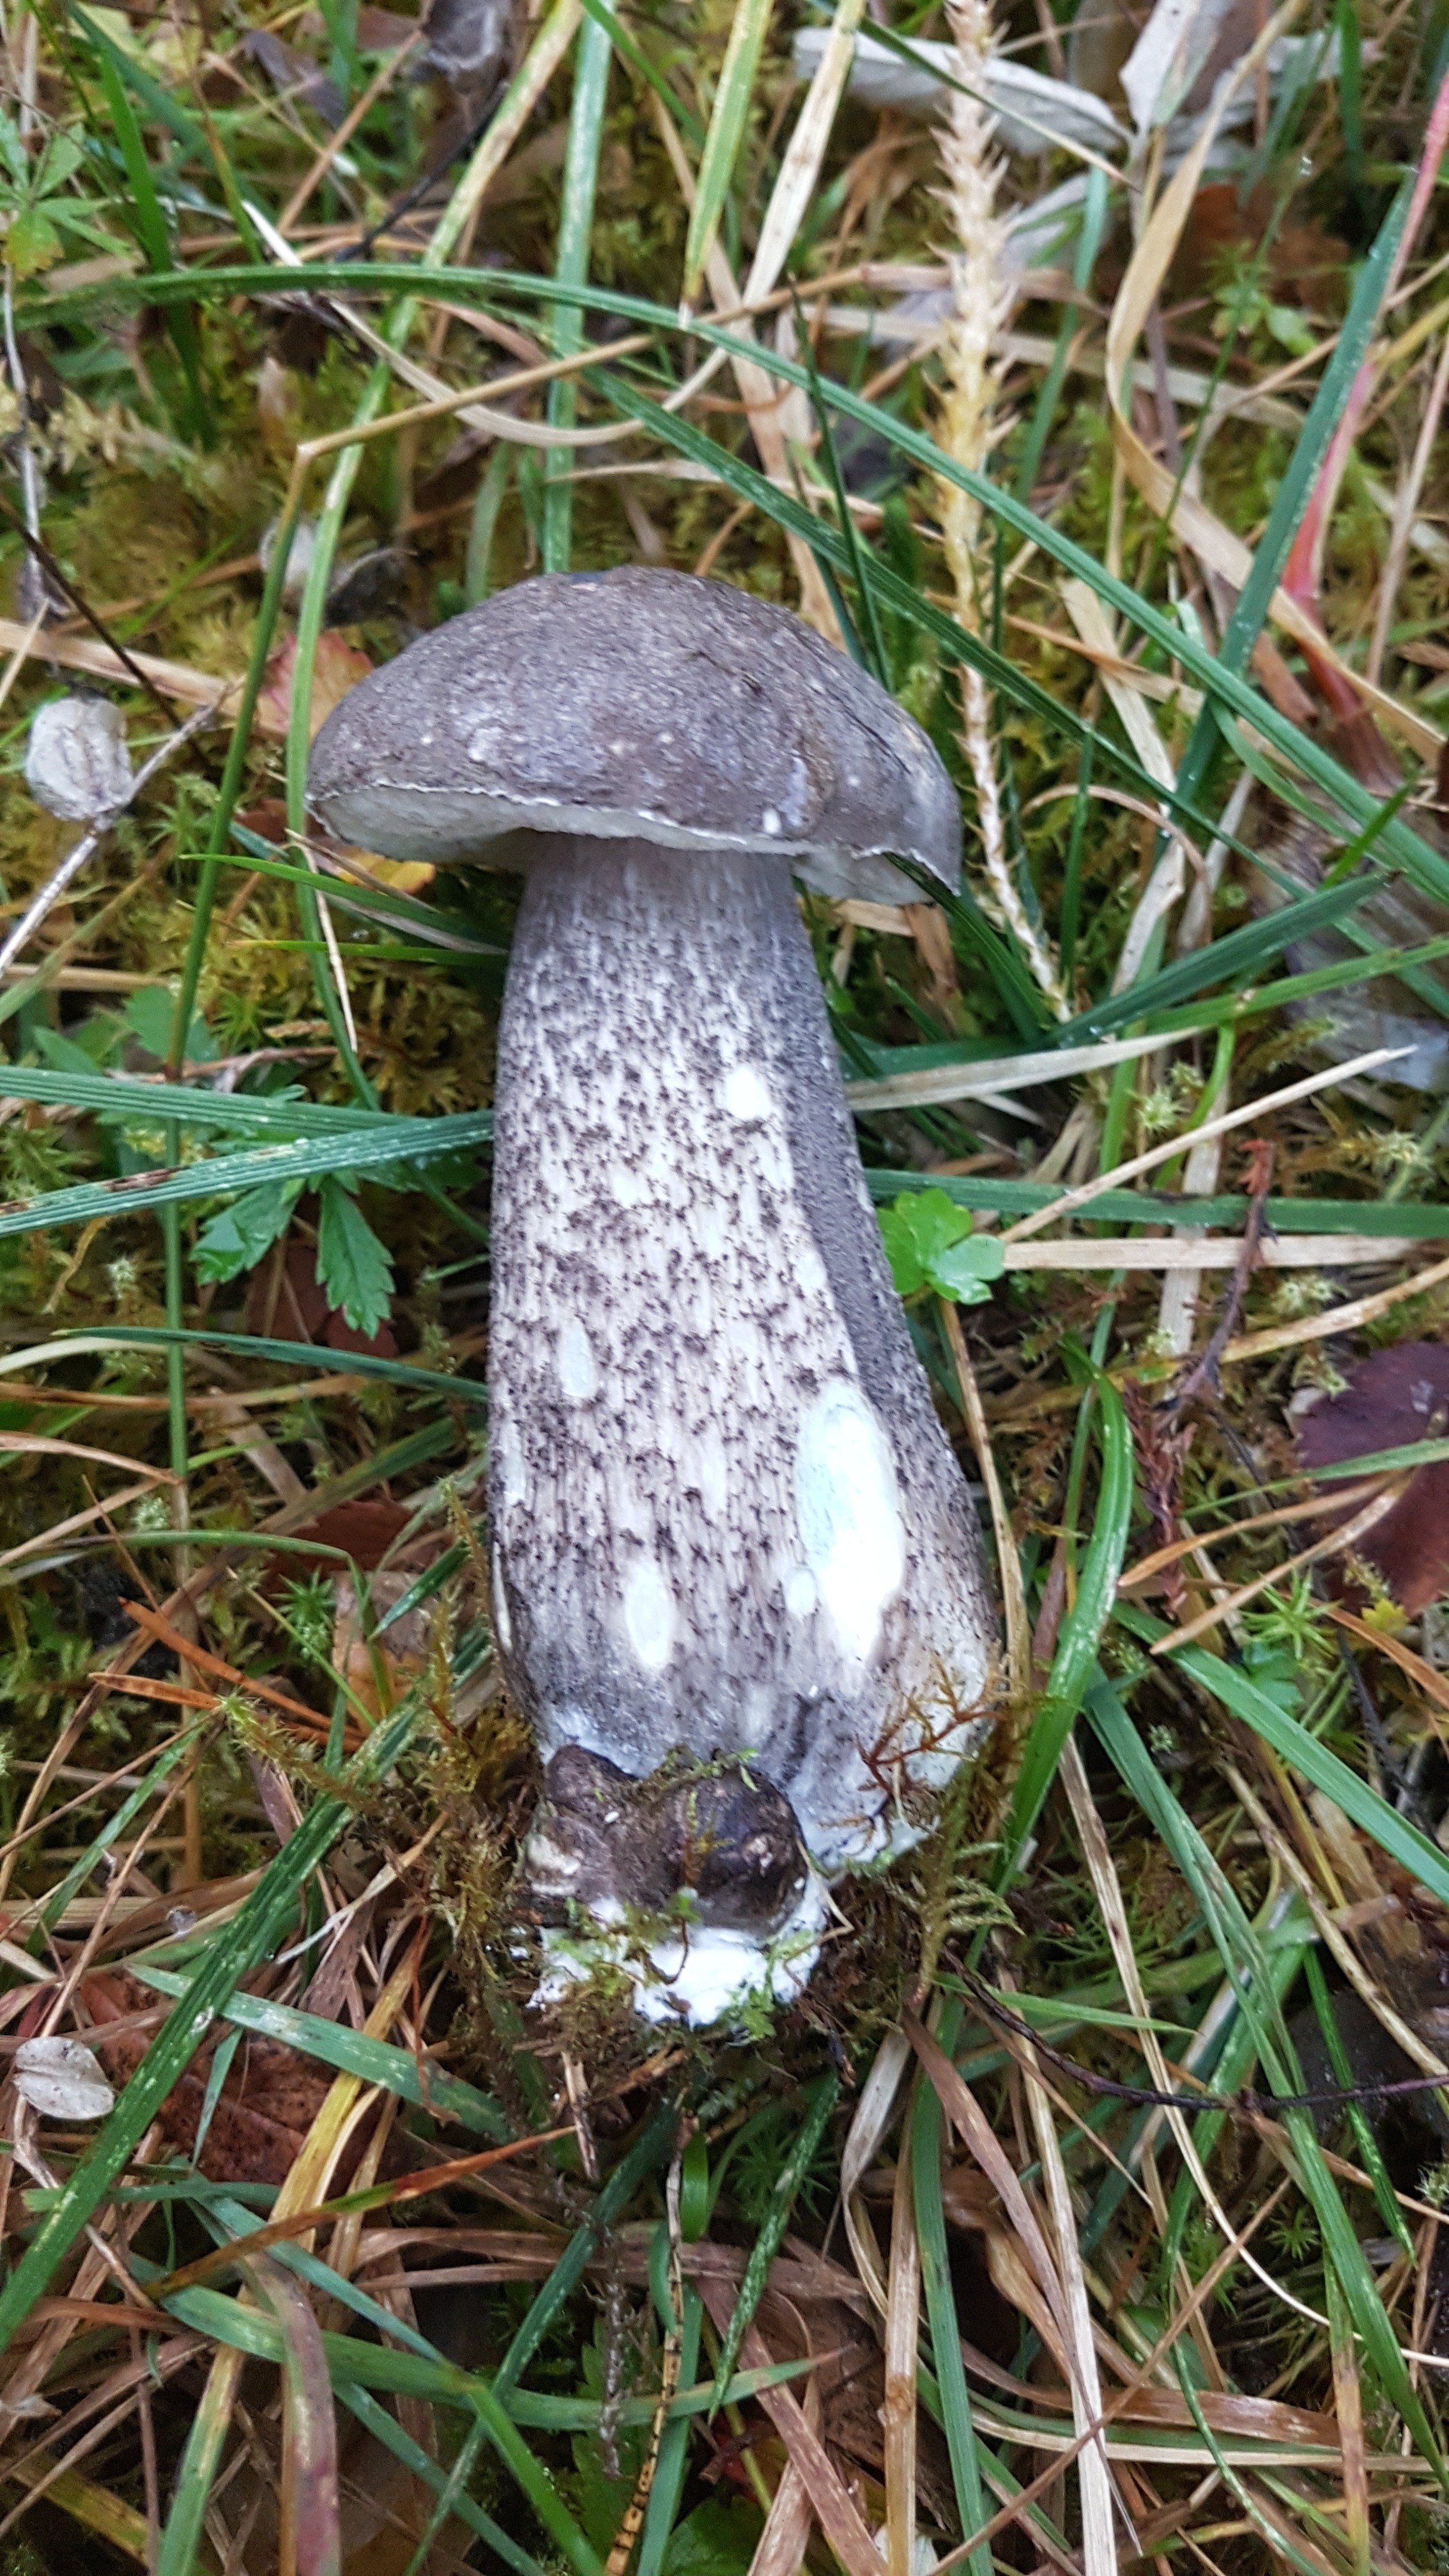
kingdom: Fungi
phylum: Basidiomycota
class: Agaricomycetes
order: Boletales
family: Boletaceae
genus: Leccinum
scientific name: Leccinum variicolor
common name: flammet skælrørhat
